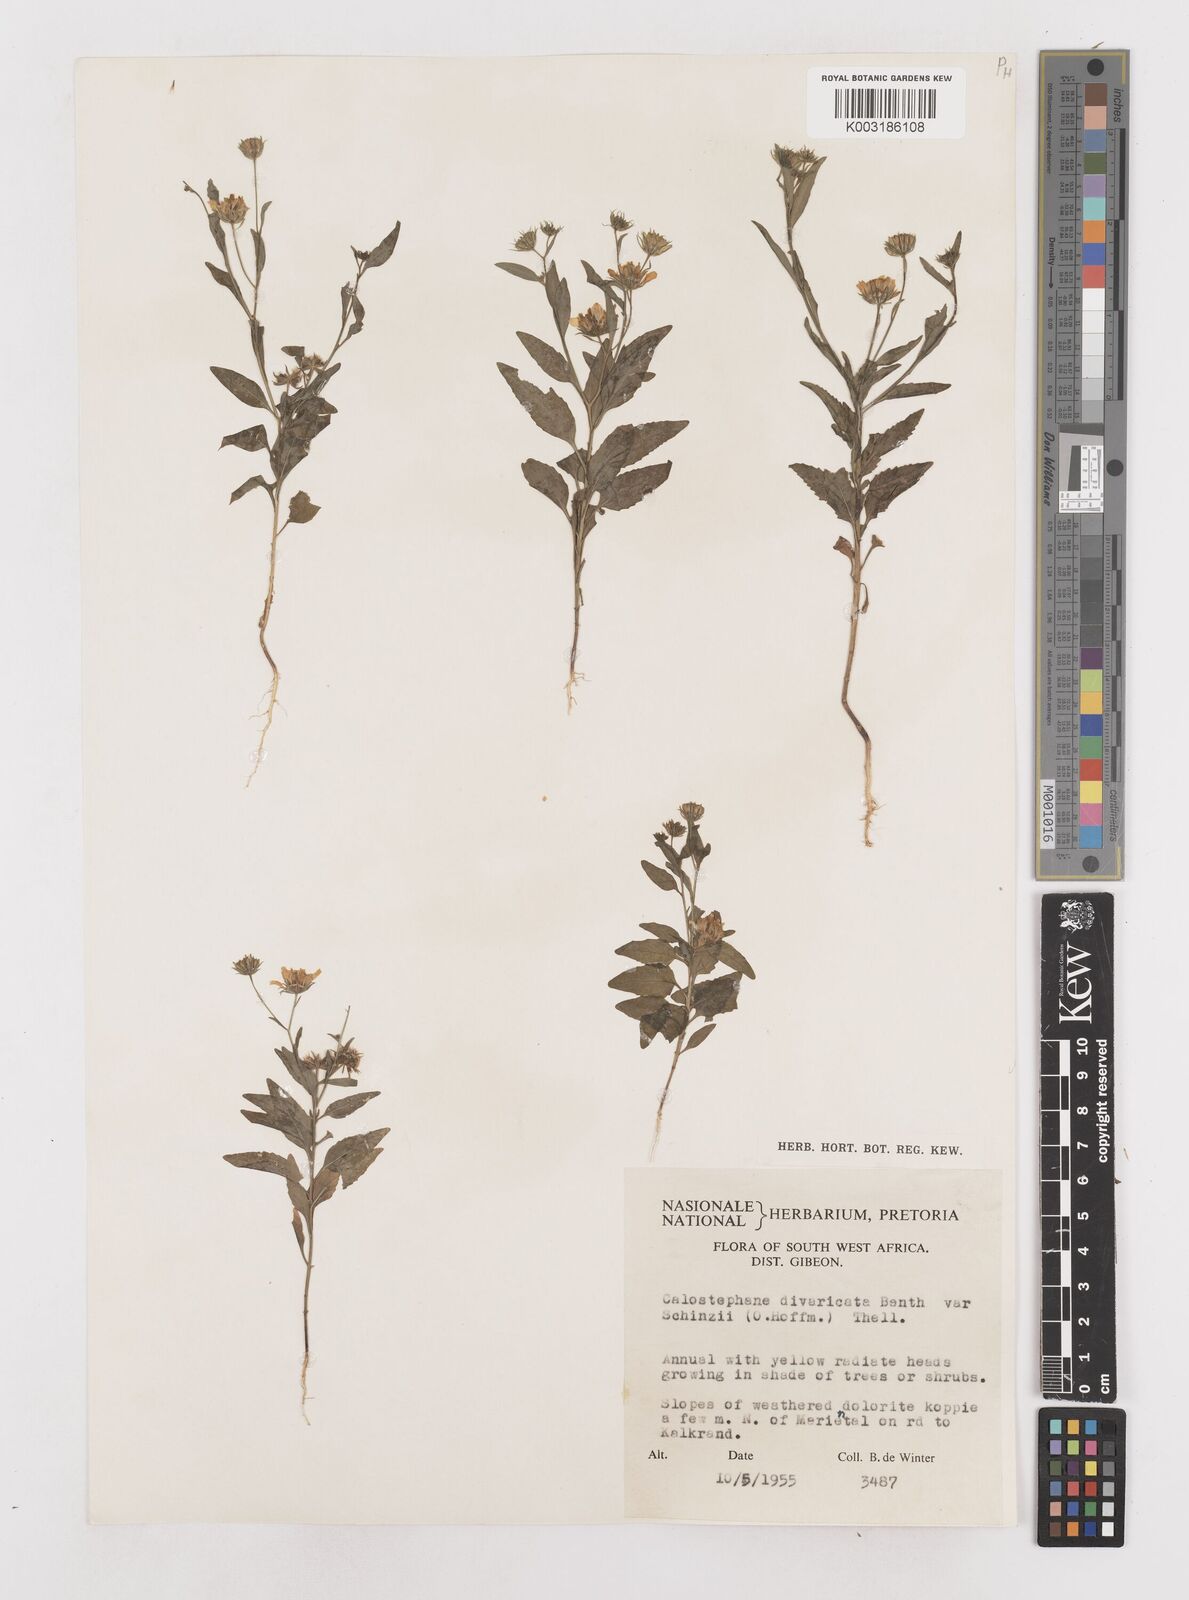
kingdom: Plantae
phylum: Tracheophyta
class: Magnoliopsida
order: Asterales
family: Asteraceae
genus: Calostephane
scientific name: Calostephane divaricata
